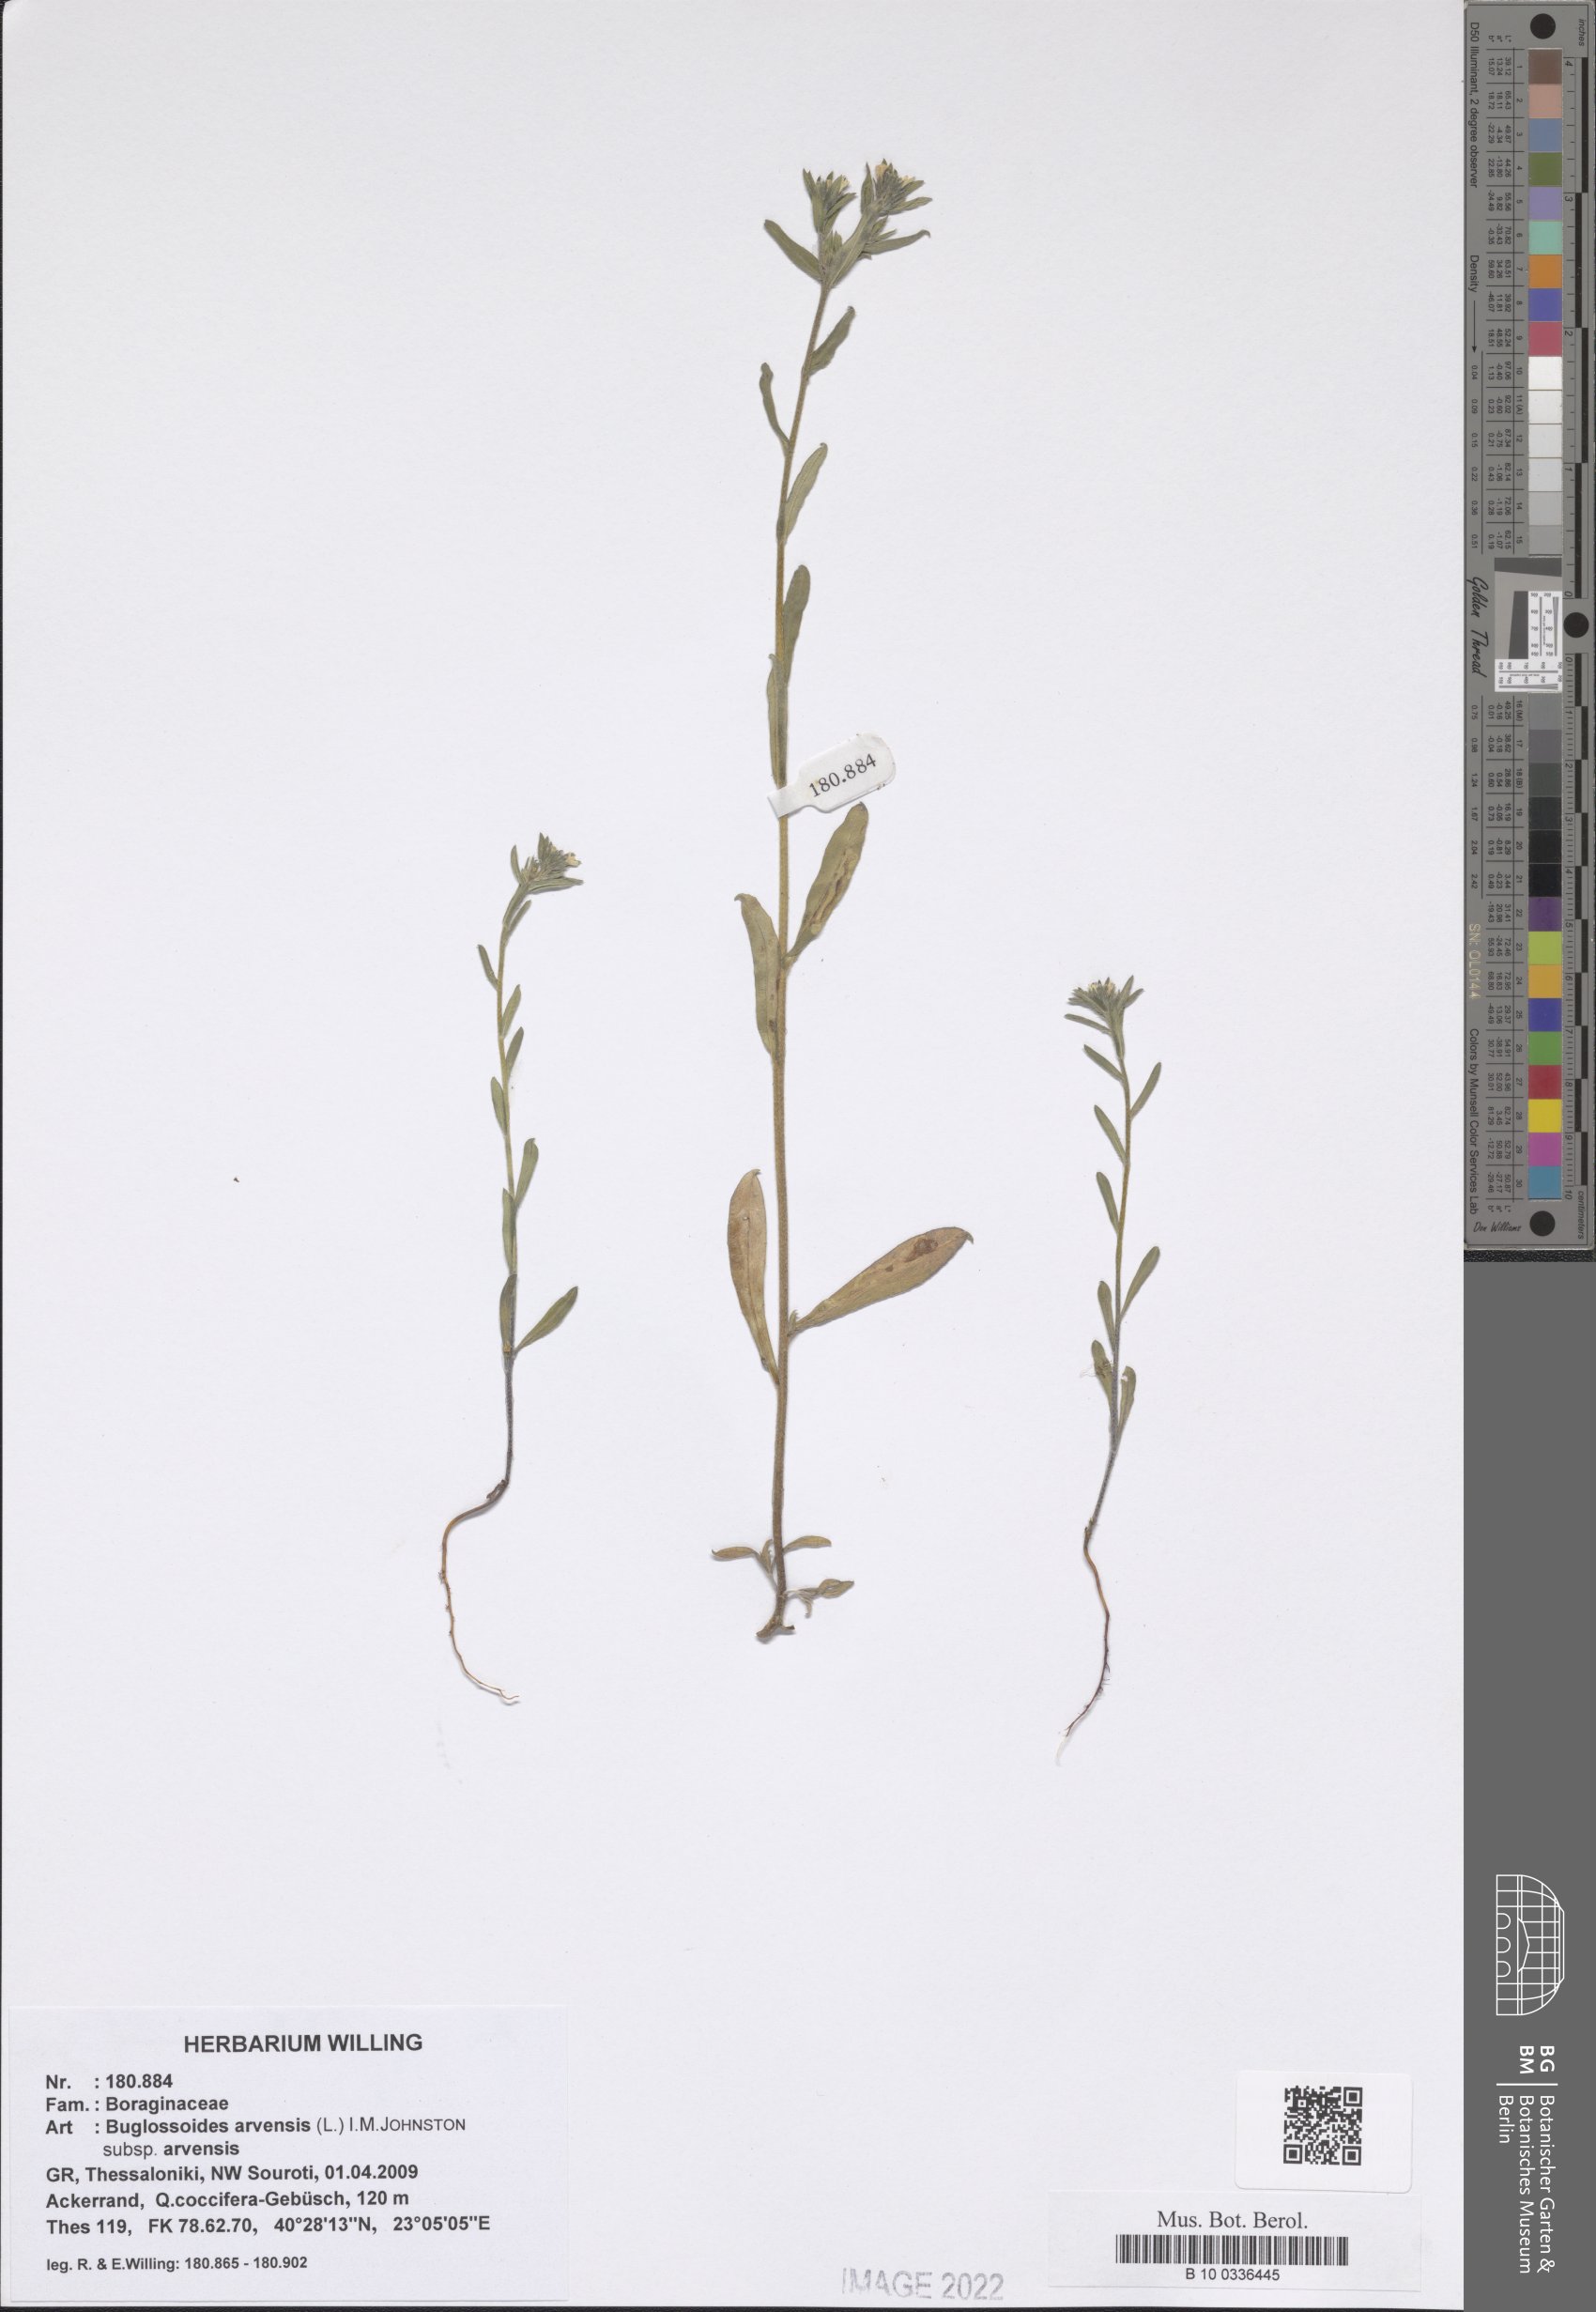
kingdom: Plantae
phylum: Tracheophyta
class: Magnoliopsida
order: Boraginales
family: Boraginaceae
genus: Buglossoides
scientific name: Buglossoides arvensis
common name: Corn gromwell
